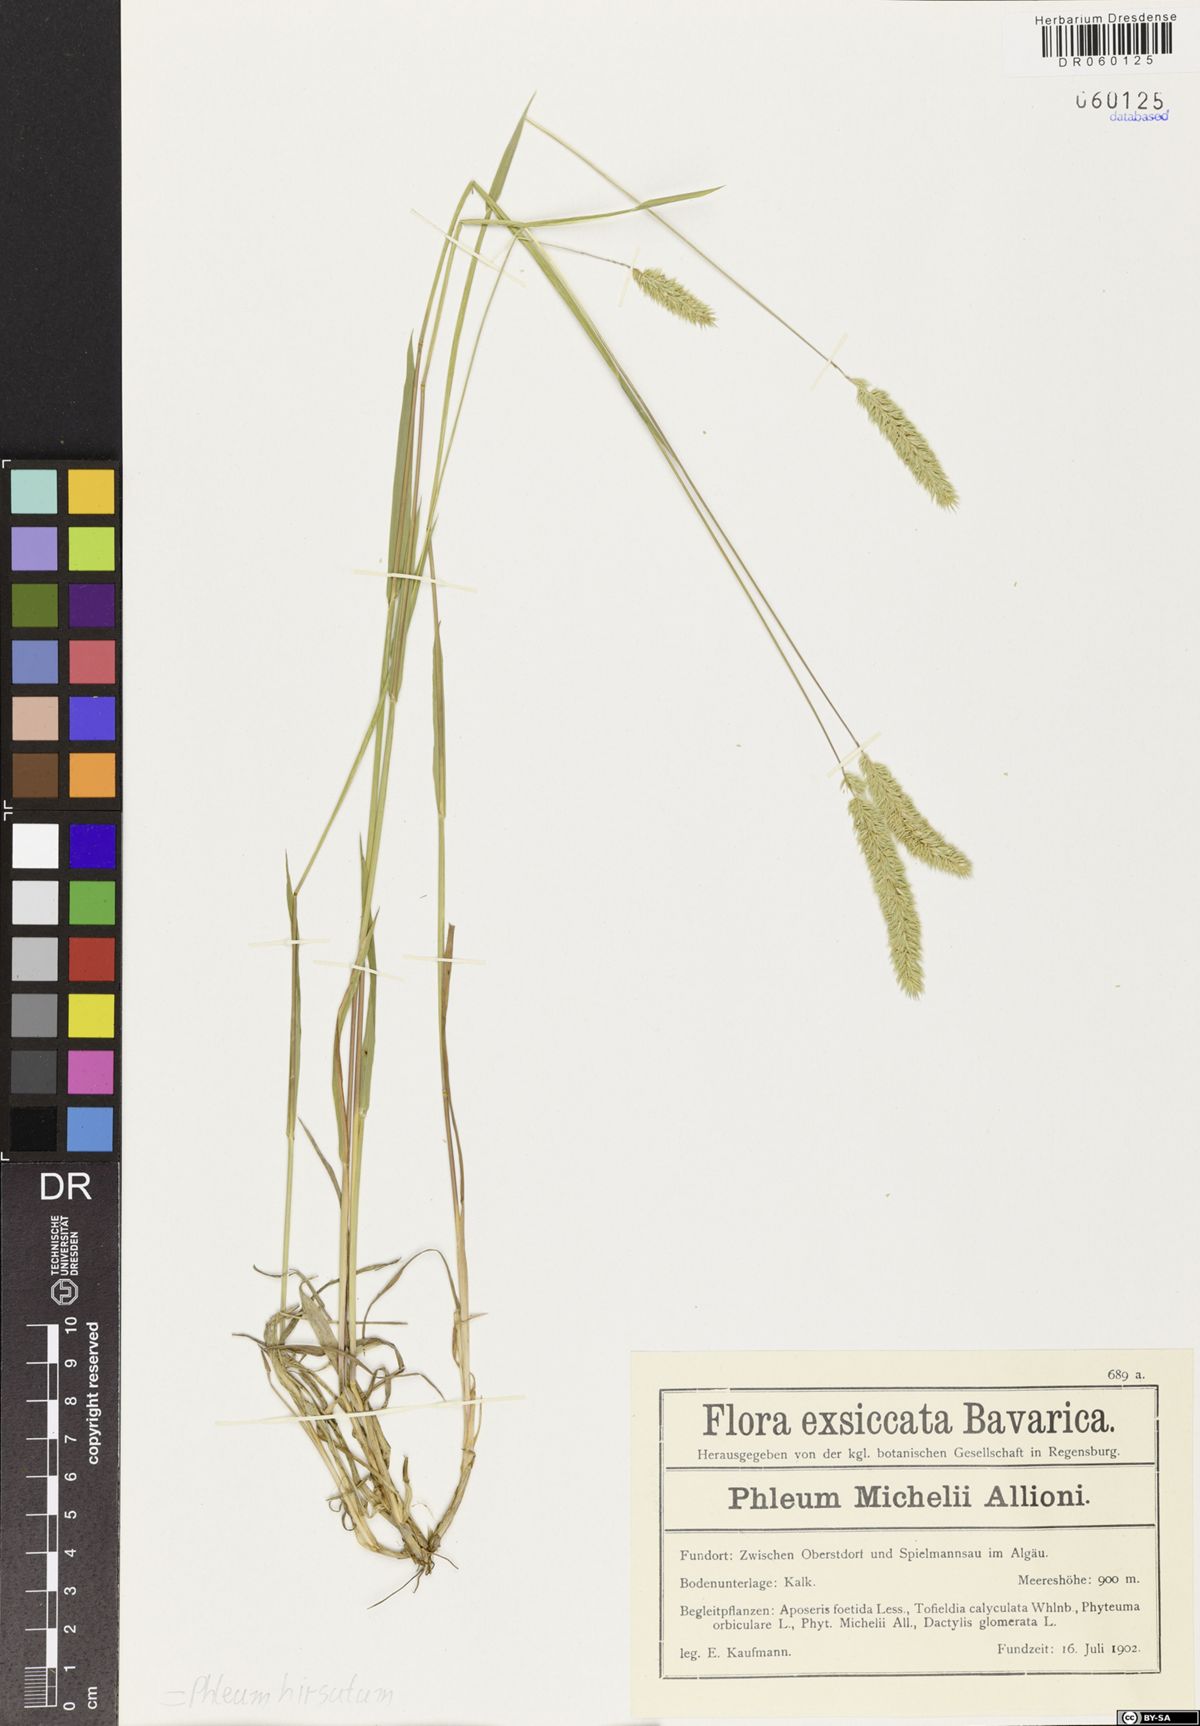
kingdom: Plantae
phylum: Tracheophyta
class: Liliopsida
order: Poales
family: Poaceae
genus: Phleum
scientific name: Phleum hirsutum
